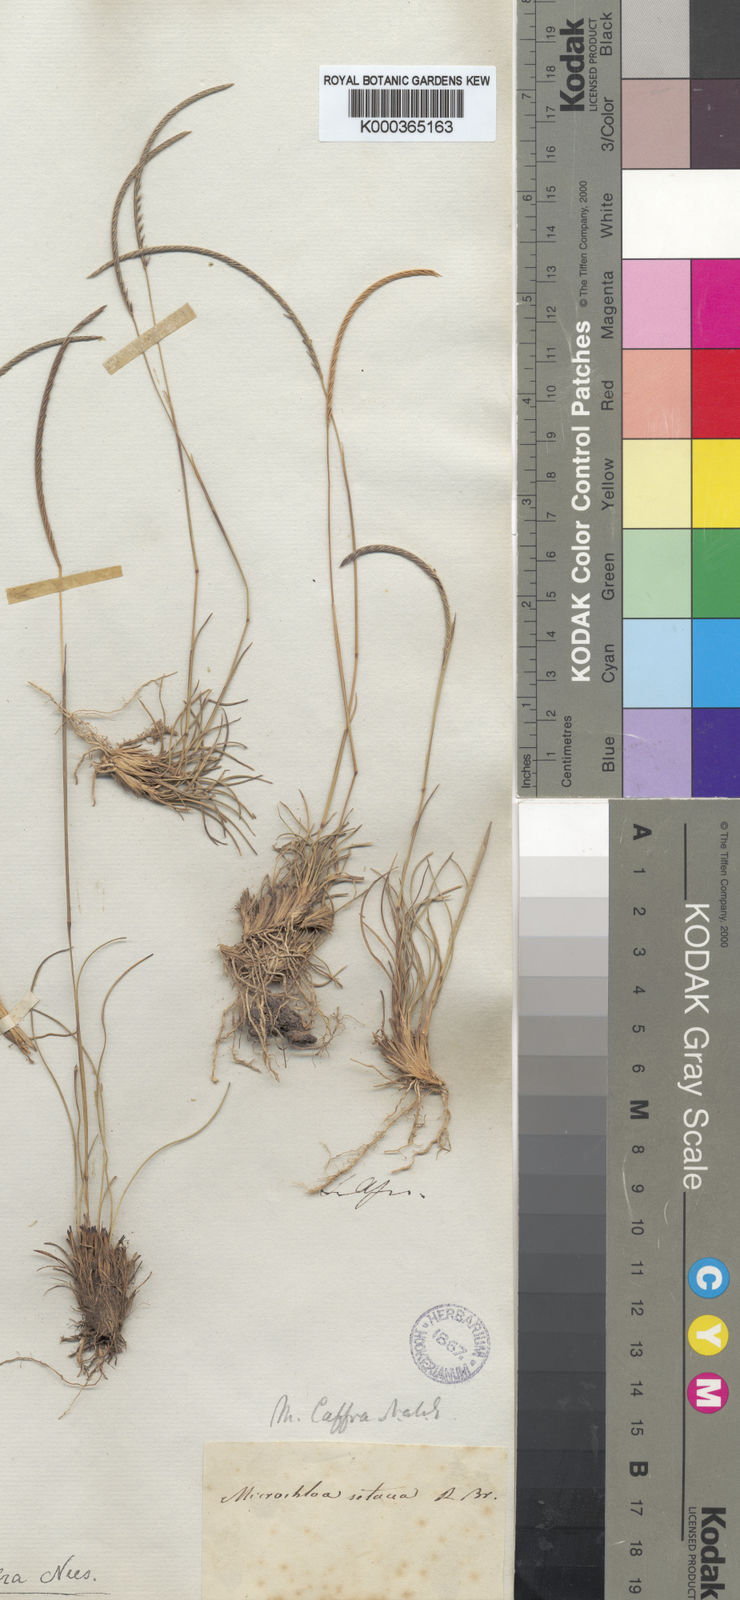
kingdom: Plantae
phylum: Tracheophyta
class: Liliopsida
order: Poales
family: Poaceae
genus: Microchloa
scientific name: Microchloa caffra
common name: Pincushion grass
